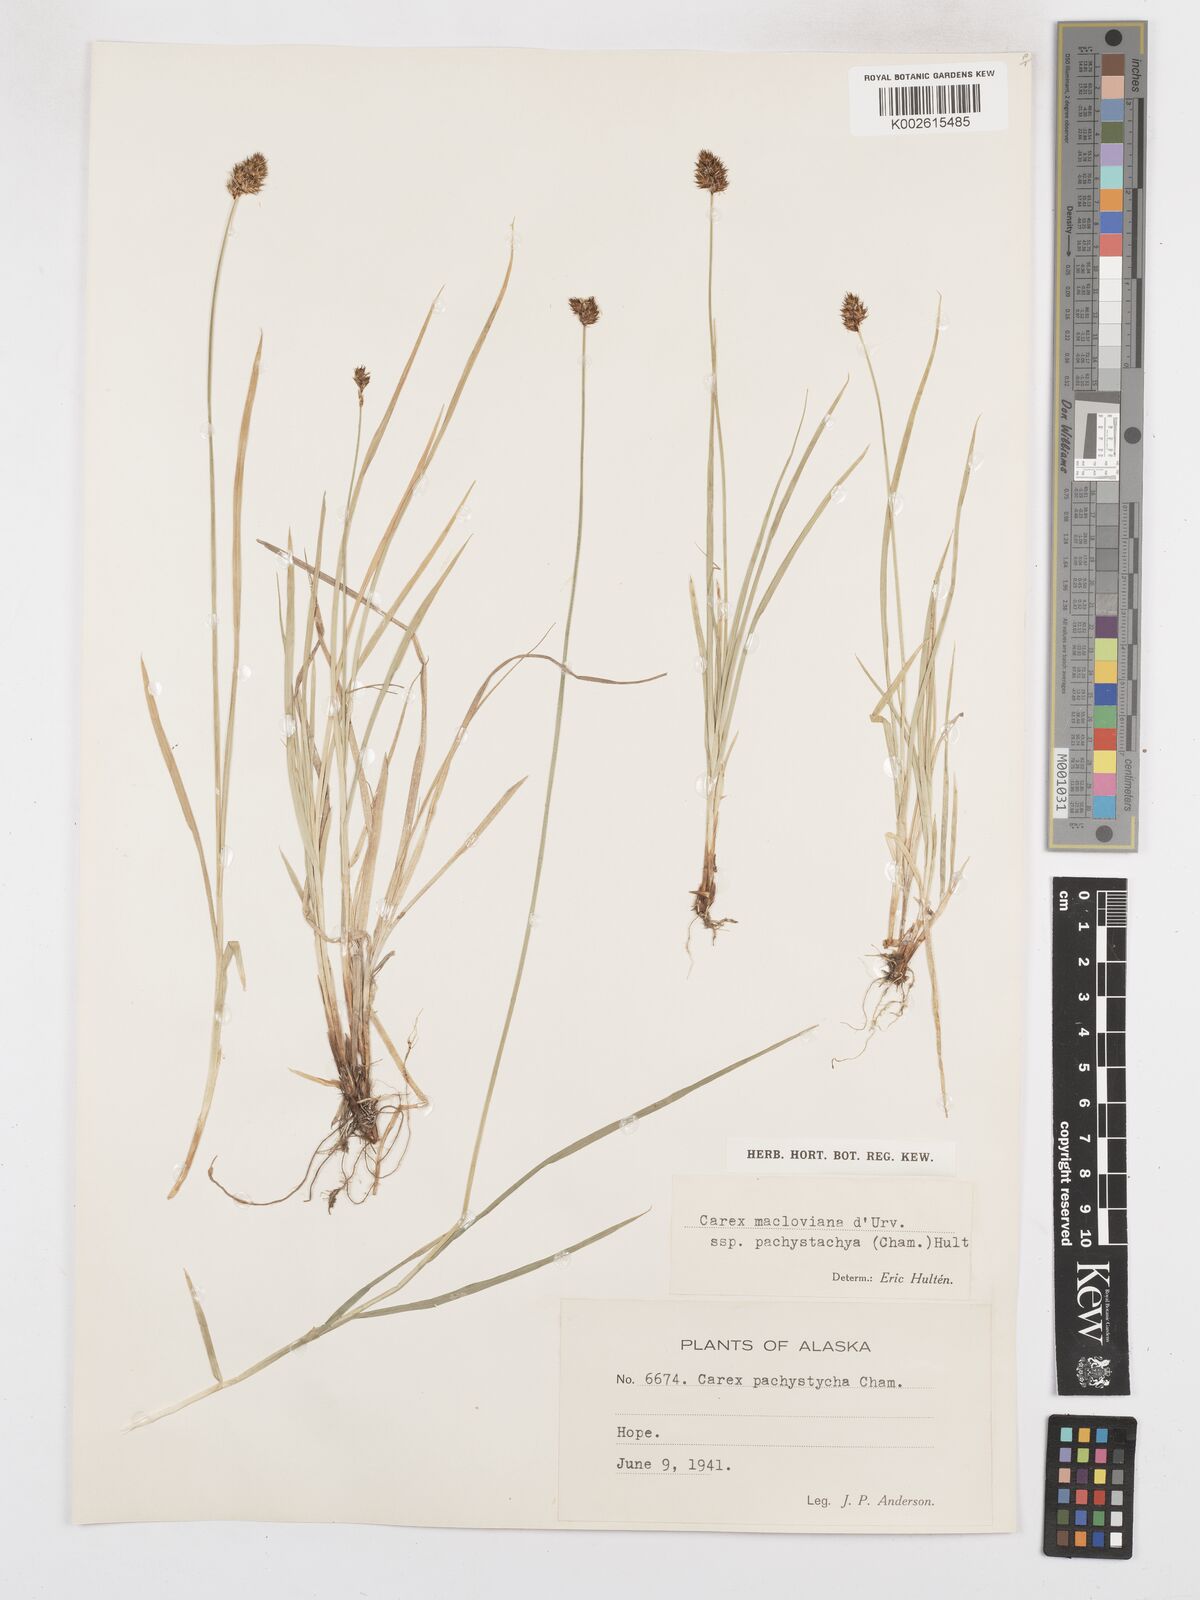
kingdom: Plantae
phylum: Tracheophyta
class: Liliopsida
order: Poales
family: Cyperaceae
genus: Carex
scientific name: Carex macloviana
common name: Falkland island sedge
